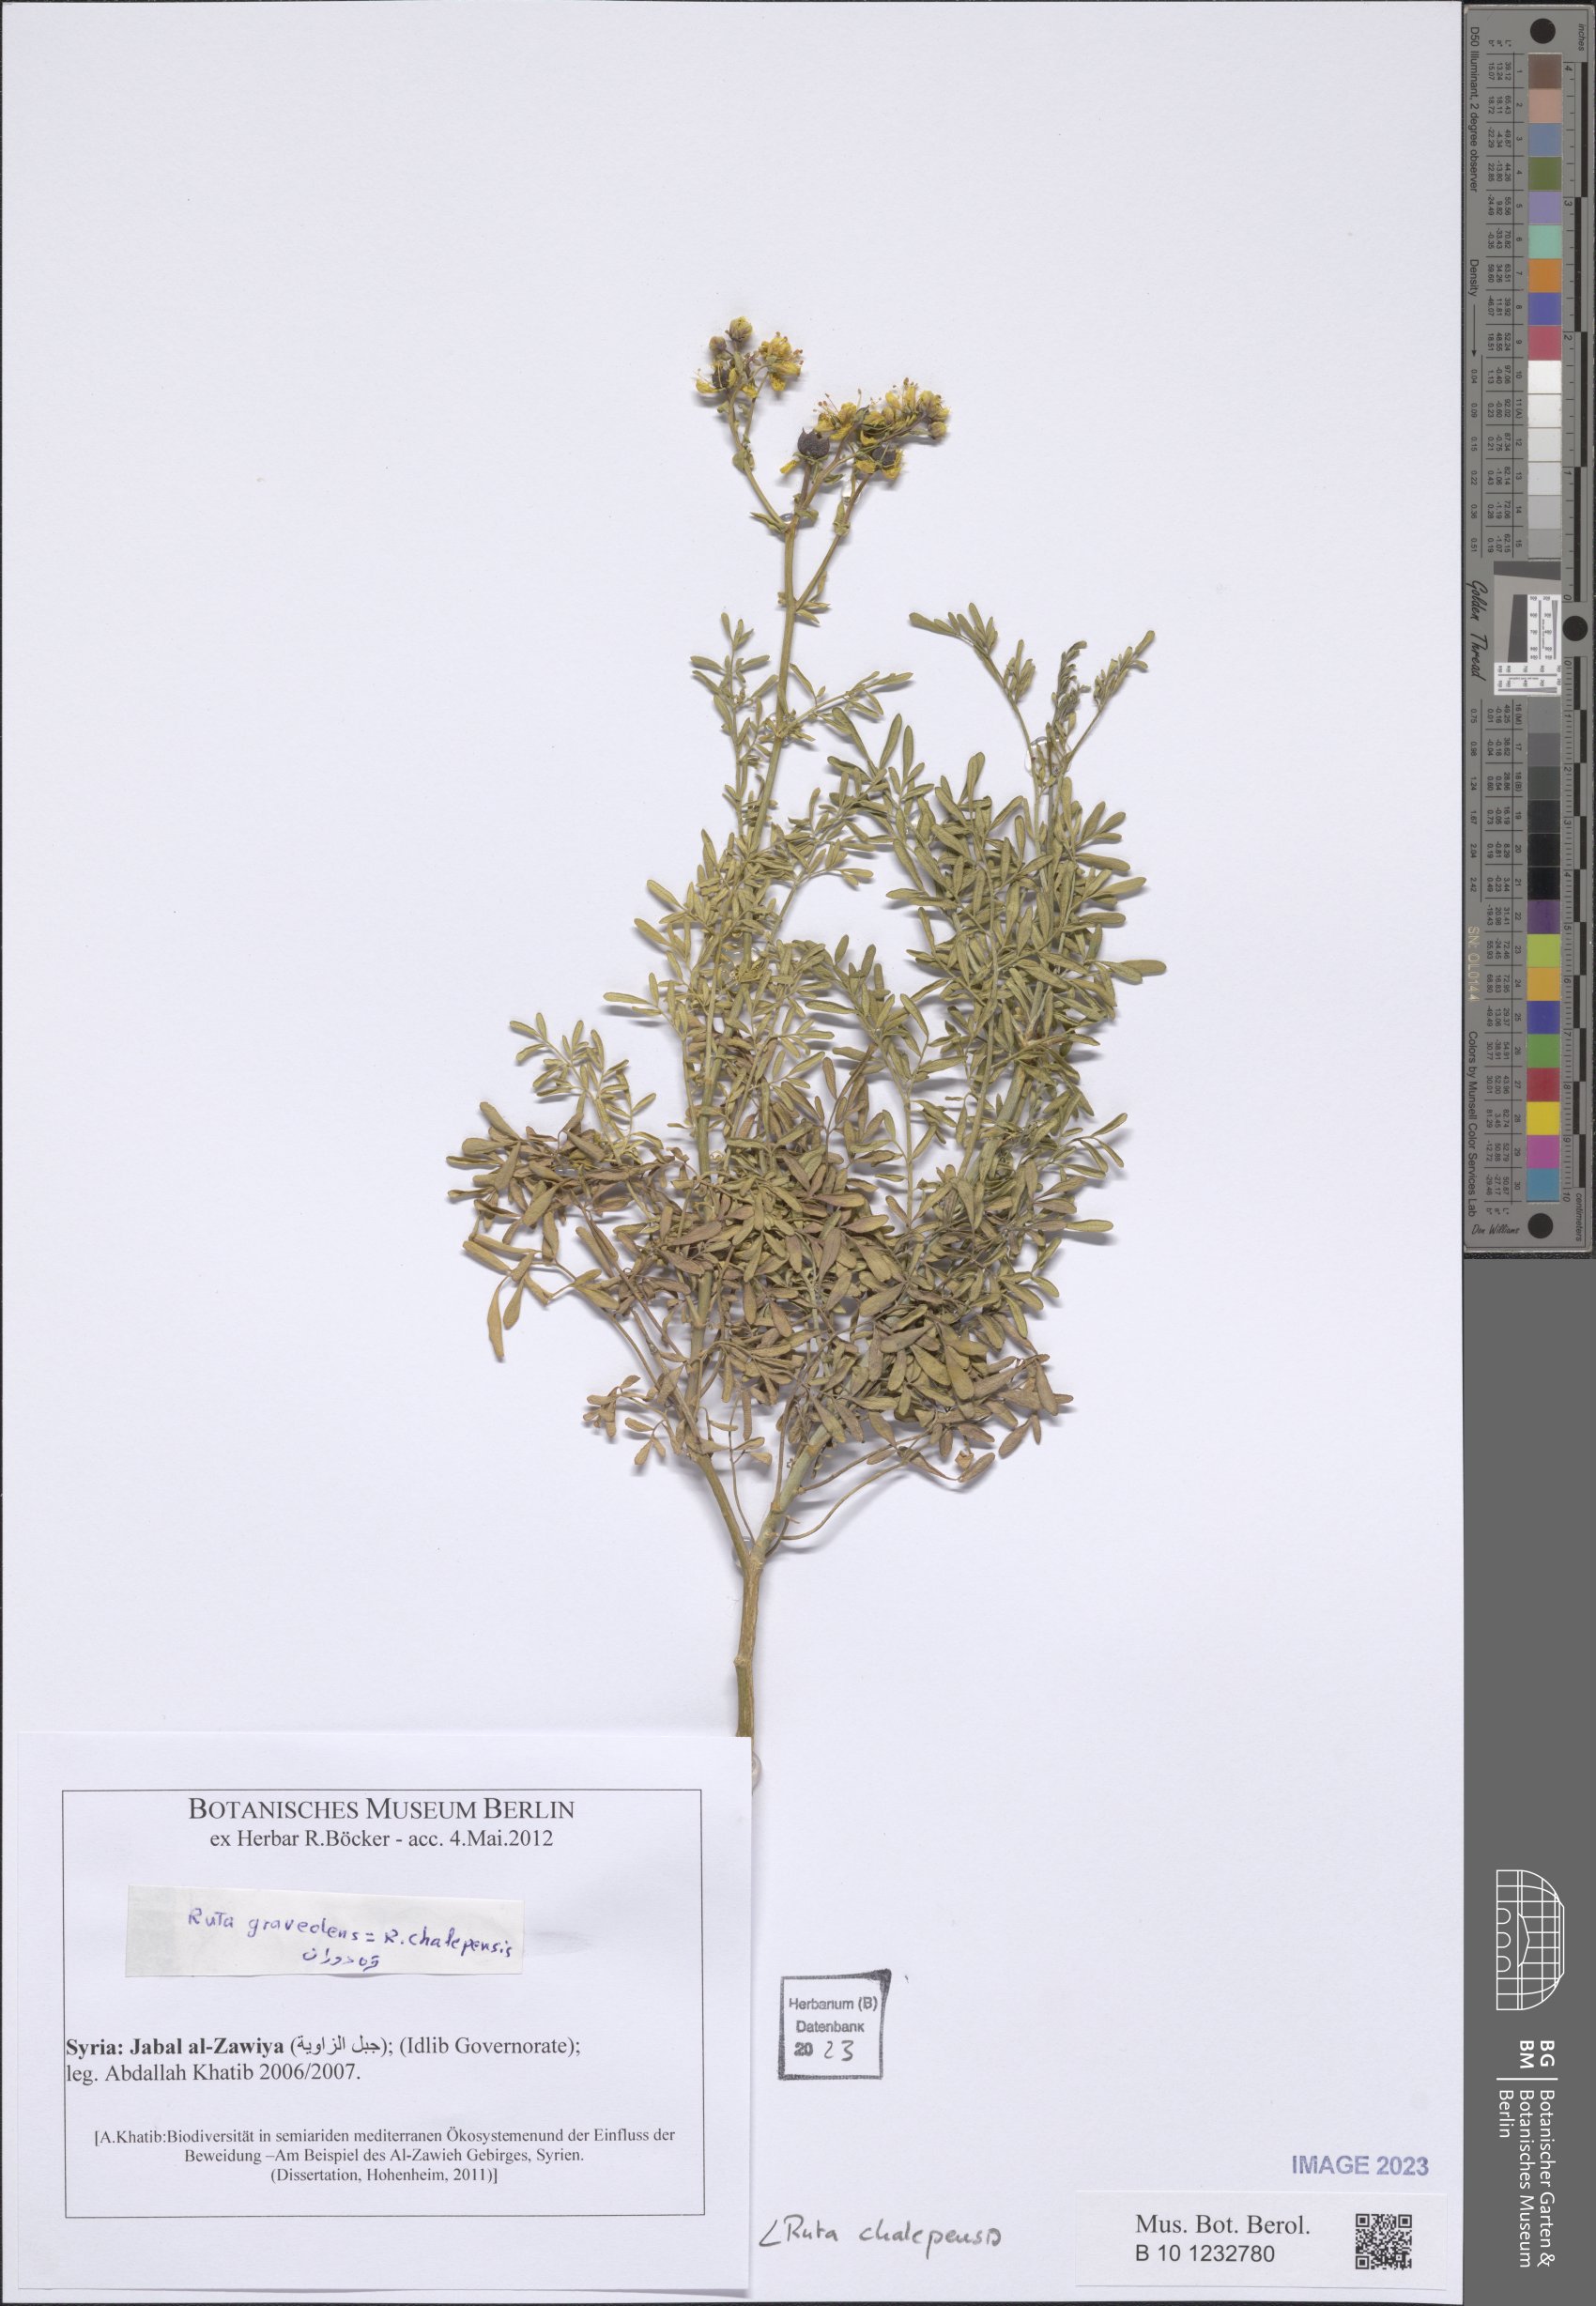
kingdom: Plantae
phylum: Tracheophyta
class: Magnoliopsida
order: Sapindales
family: Rutaceae
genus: Ruta
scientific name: Ruta chalepensis
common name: Fringed rue
